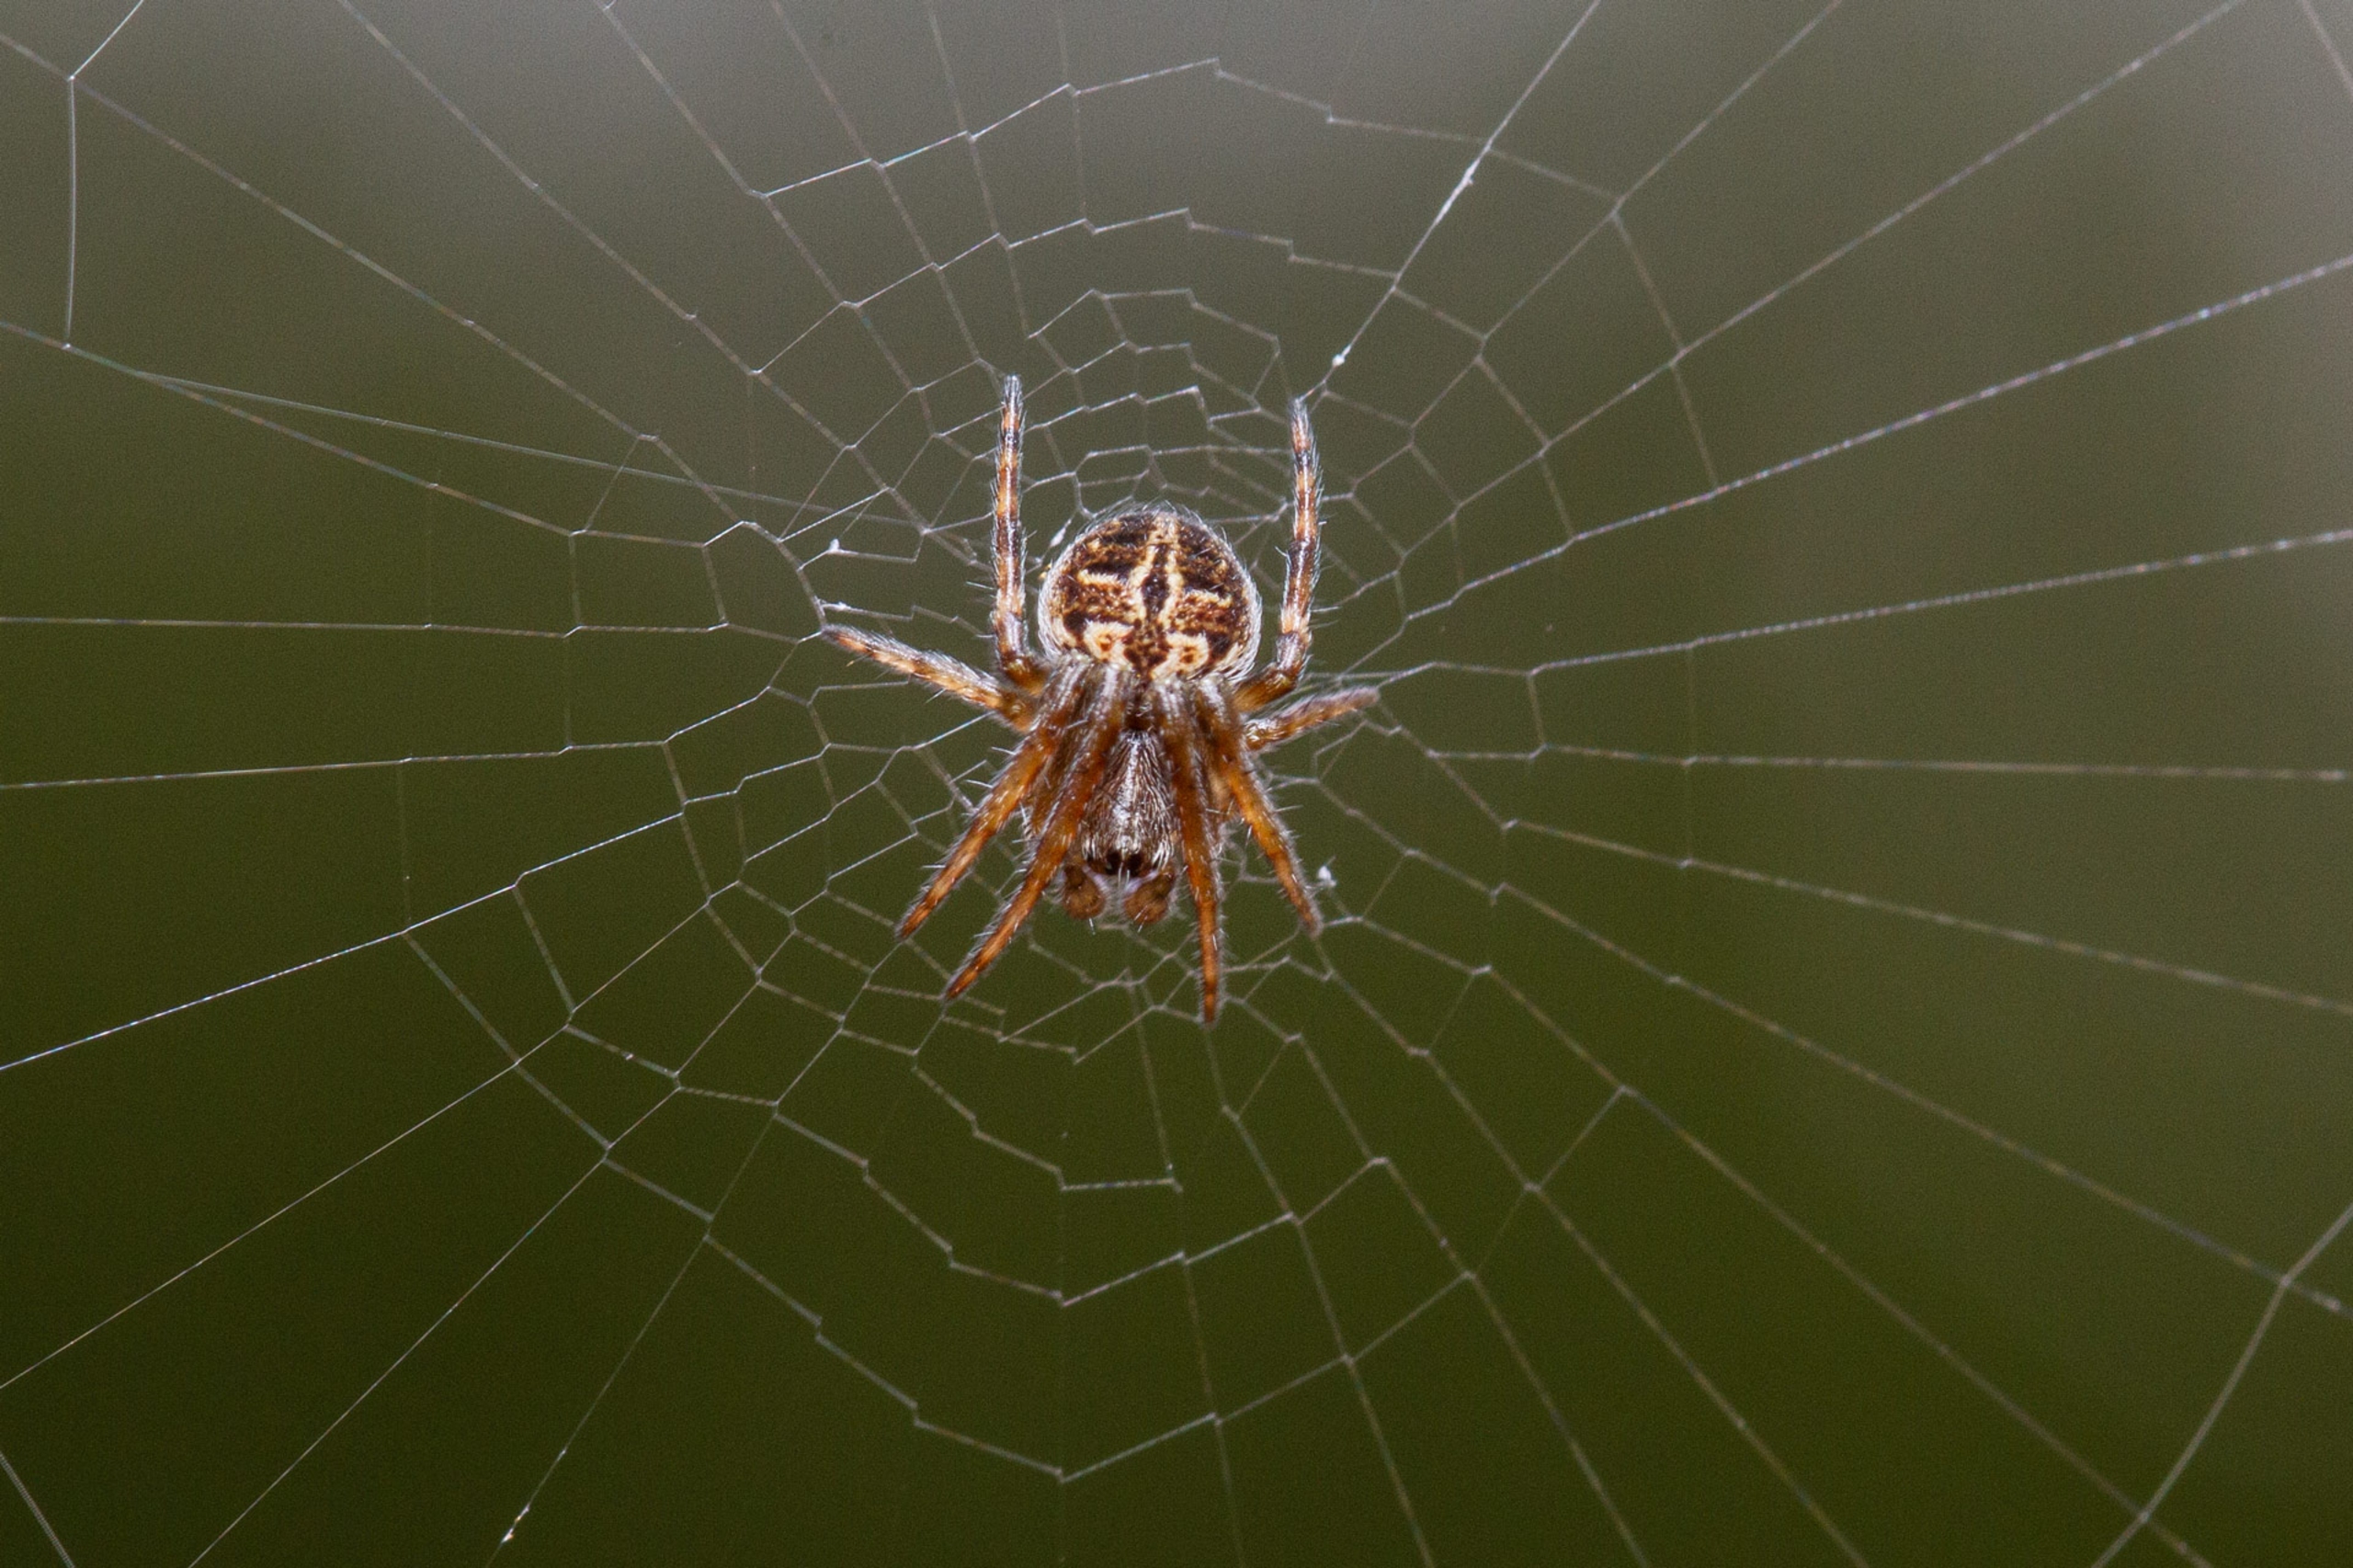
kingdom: Animalia
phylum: Arthropoda
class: Arachnida
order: Araneae
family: Araneidae
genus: Agalenatea
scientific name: Agalenatea redii
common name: Lodden hjulspinder
